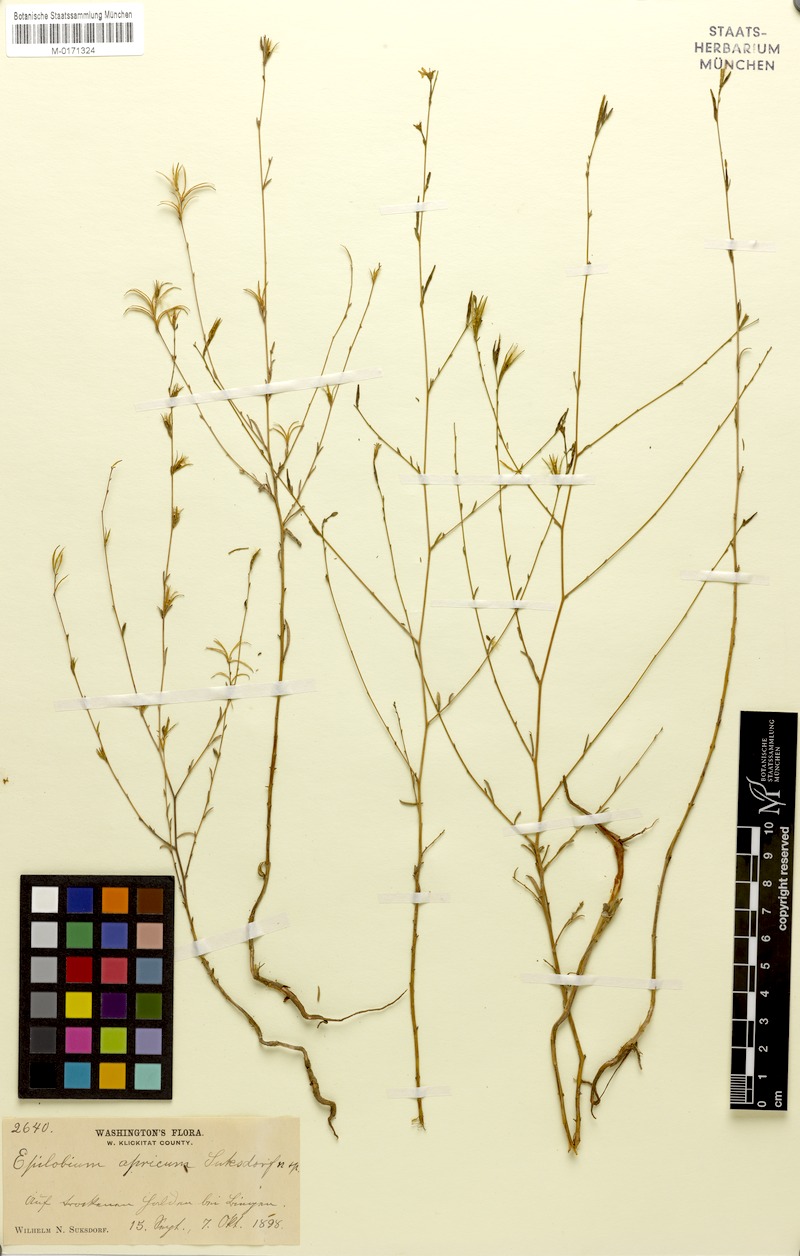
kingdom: Plantae
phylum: Tracheophyta
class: Magnoliopsida
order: Myrtales
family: Onagraceae
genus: Epilobium
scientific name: Epilobium brachycarpum
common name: Annual willowherb
